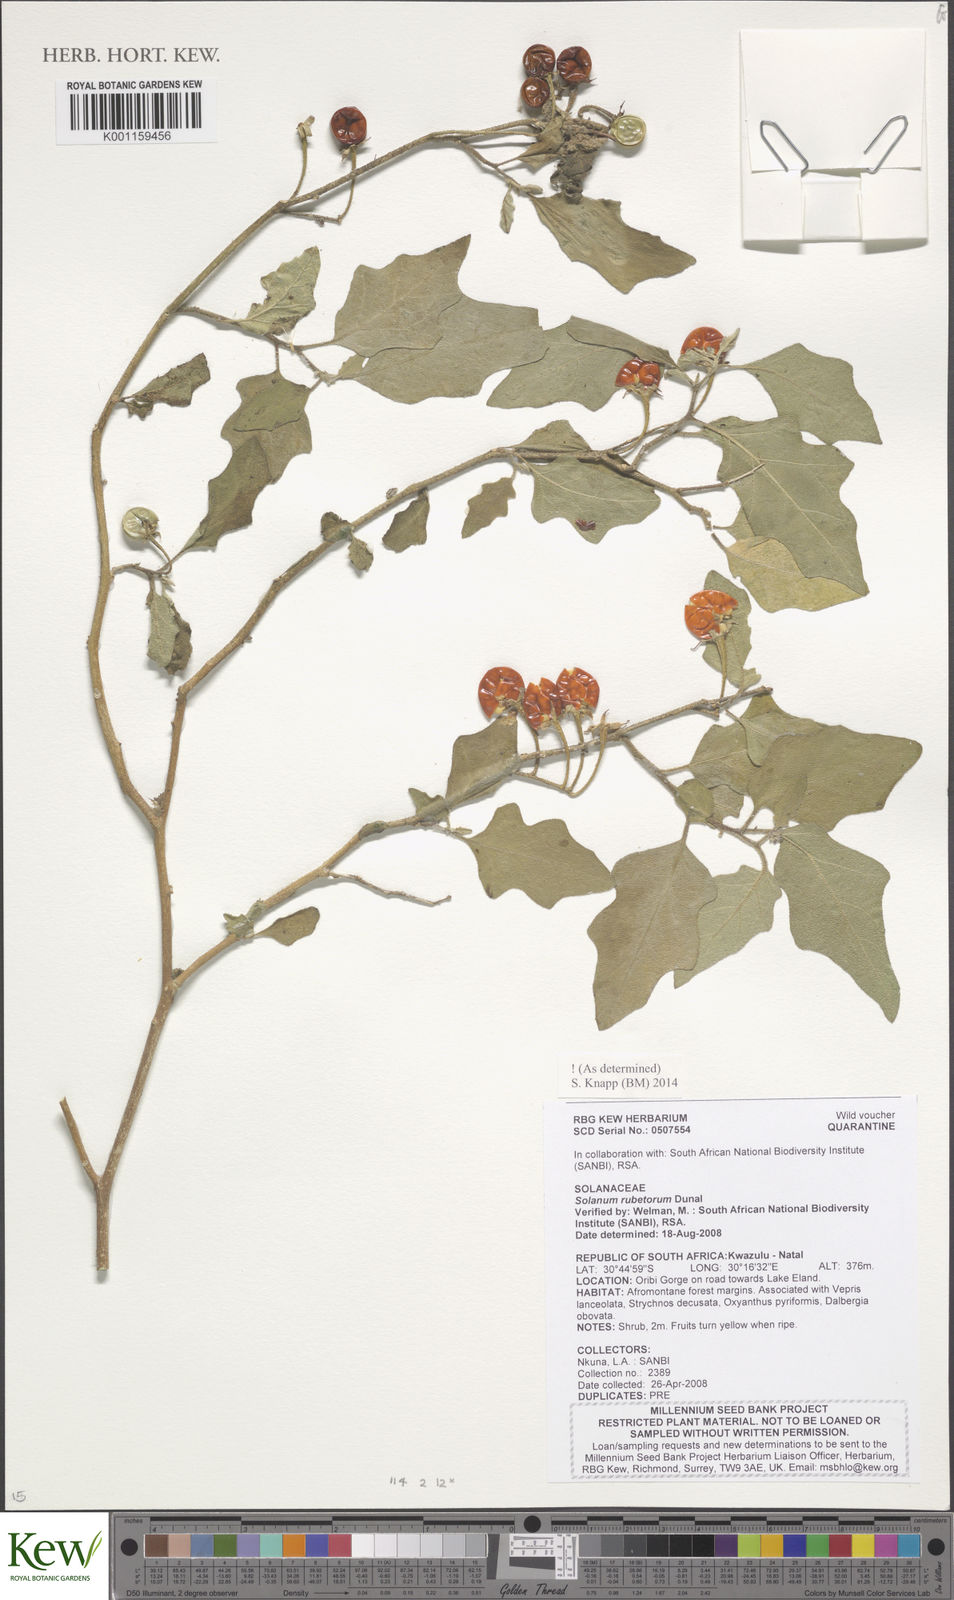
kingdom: Plantae
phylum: Tracheophyta
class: Magnoliopsida
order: Solanales
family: Solanaceae
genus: Solanum
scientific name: Solanum rubetorum
